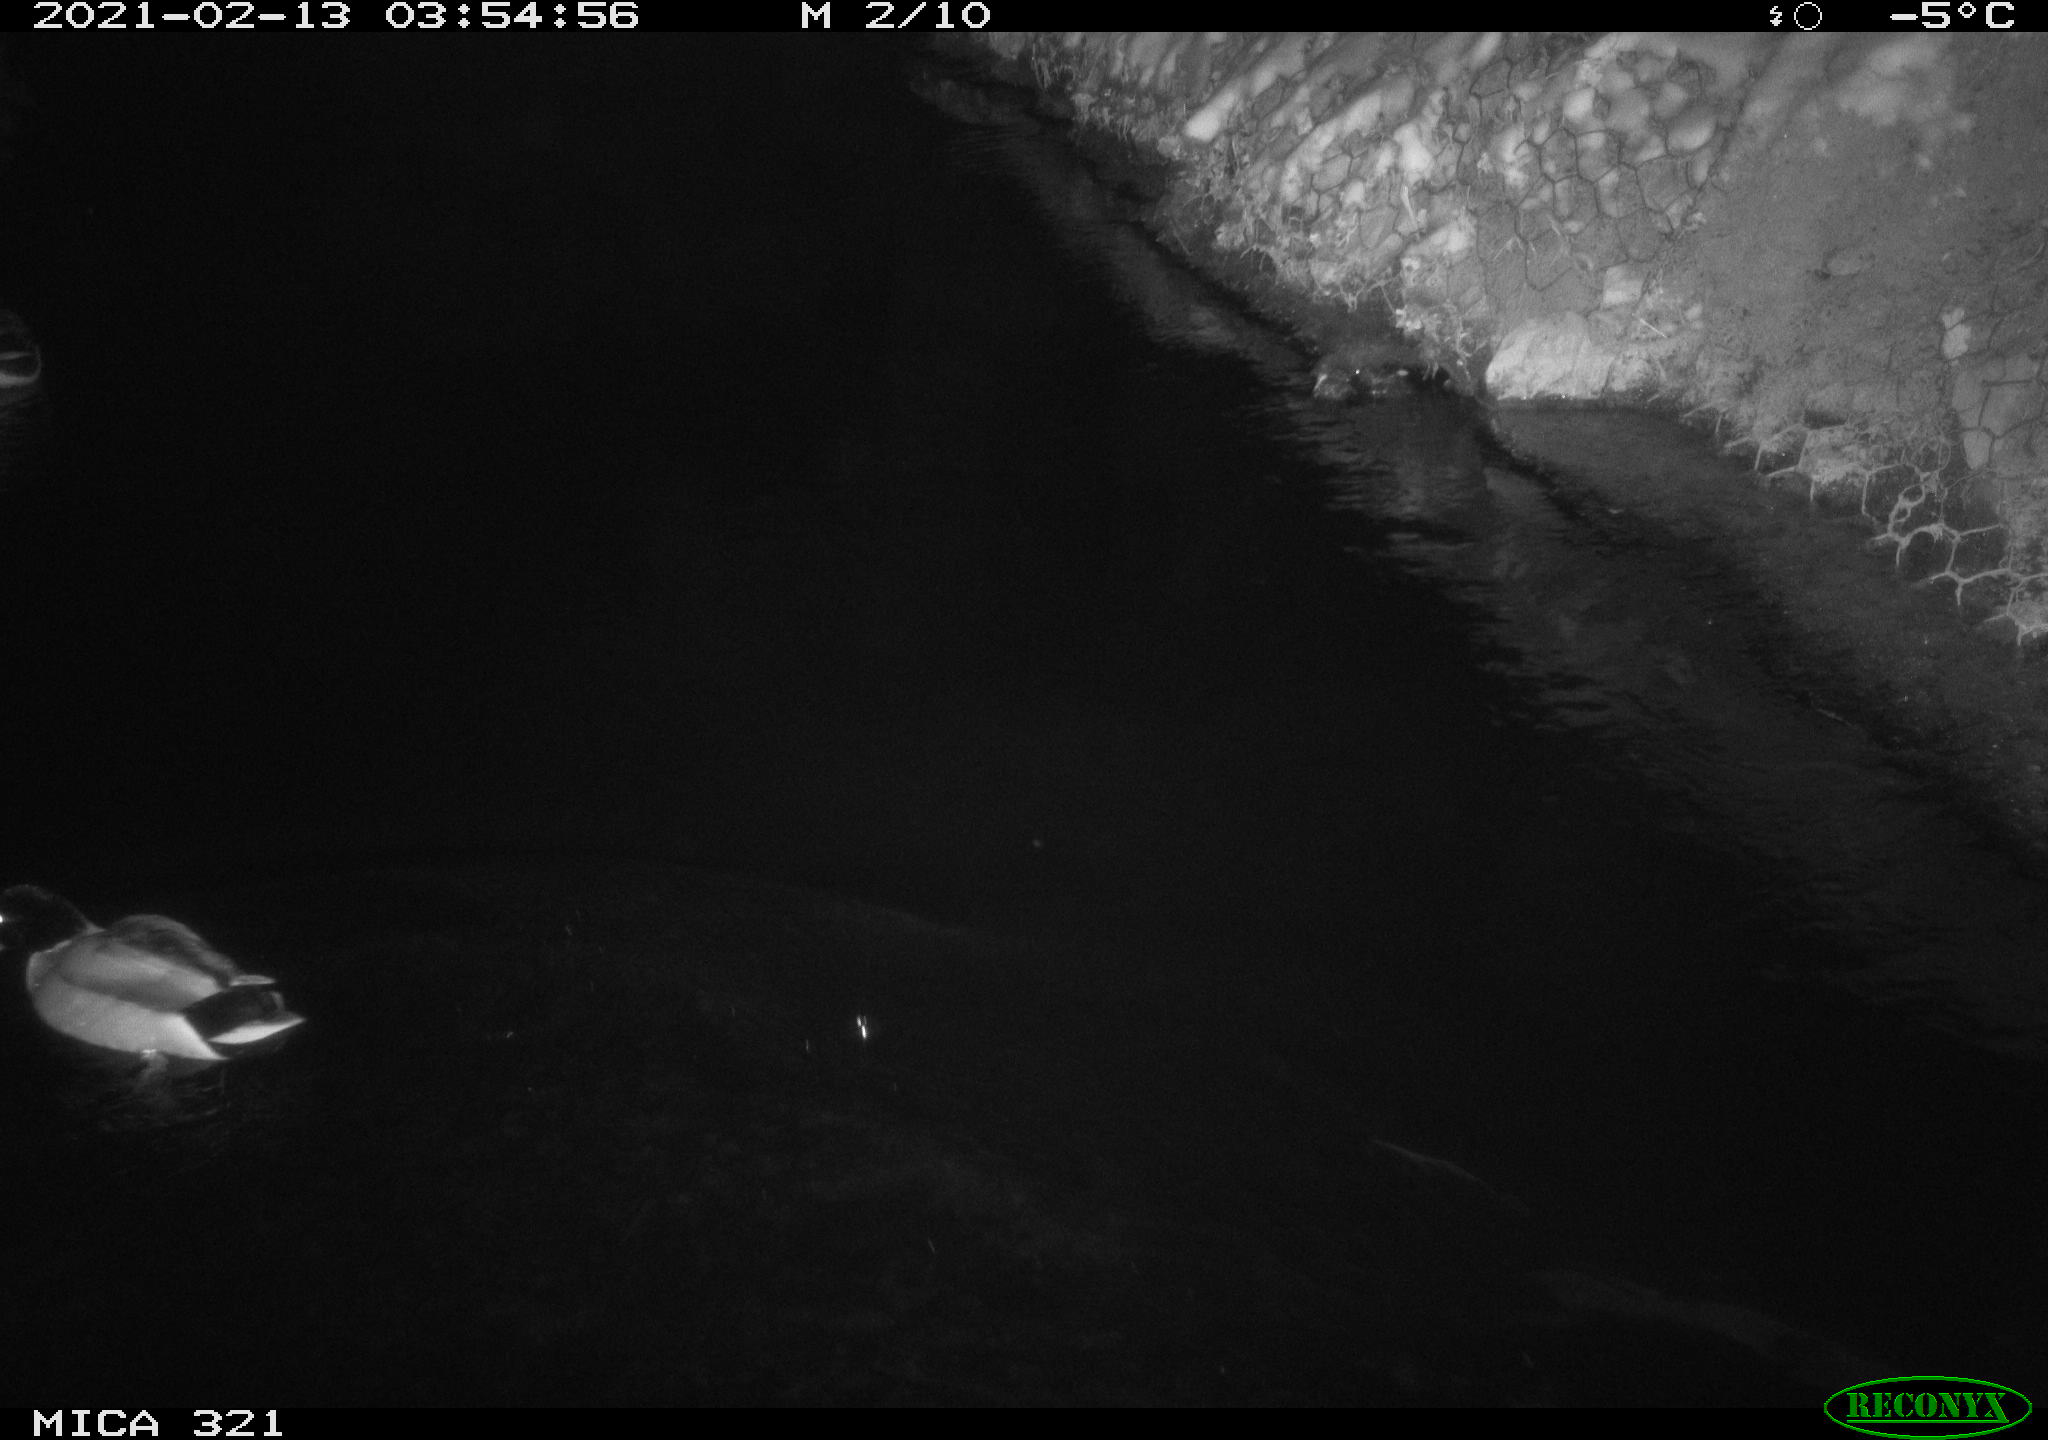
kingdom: Animalia
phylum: Chordata
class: Aves
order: Anseriformes
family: Anatidae
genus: Anas
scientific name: Anas platyrhynchos
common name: Mallard
